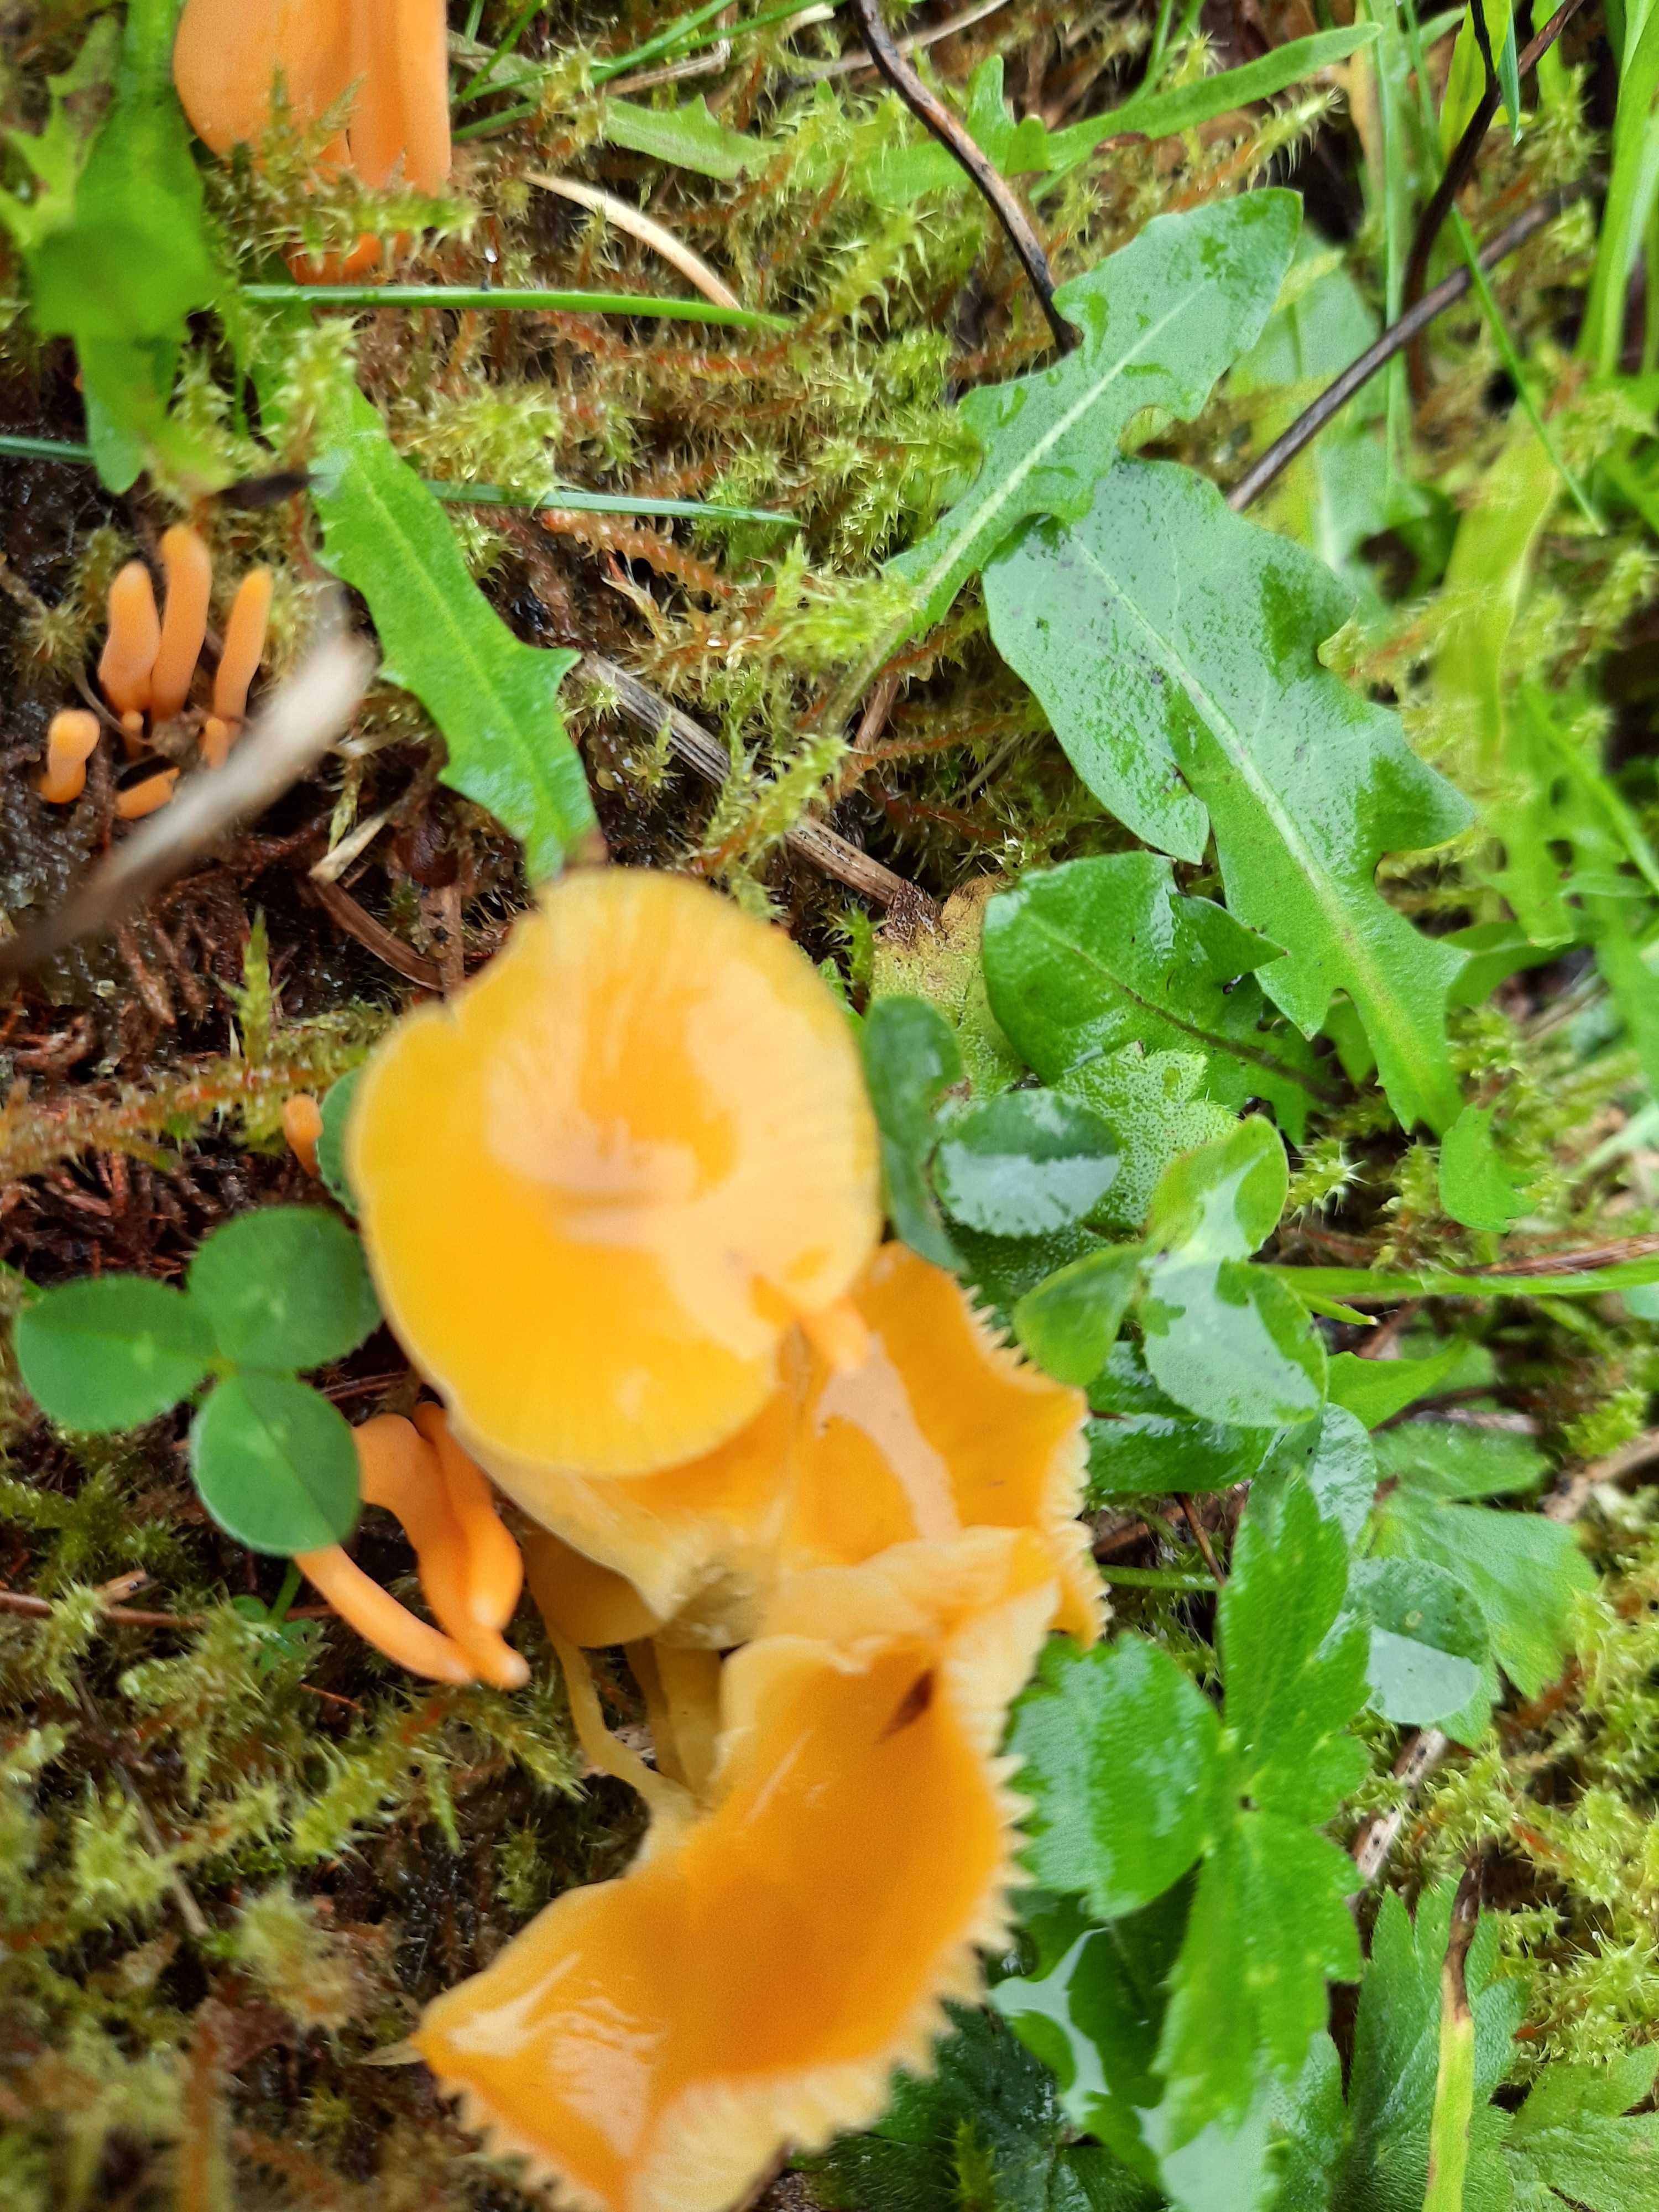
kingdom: Fungi
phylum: Basidiomycota
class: Agaricomycetes
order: Agaricales
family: Hygrophoraceae
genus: Hygrocybe
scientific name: Hygrocybe ceracea
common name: voksgul vokshat
